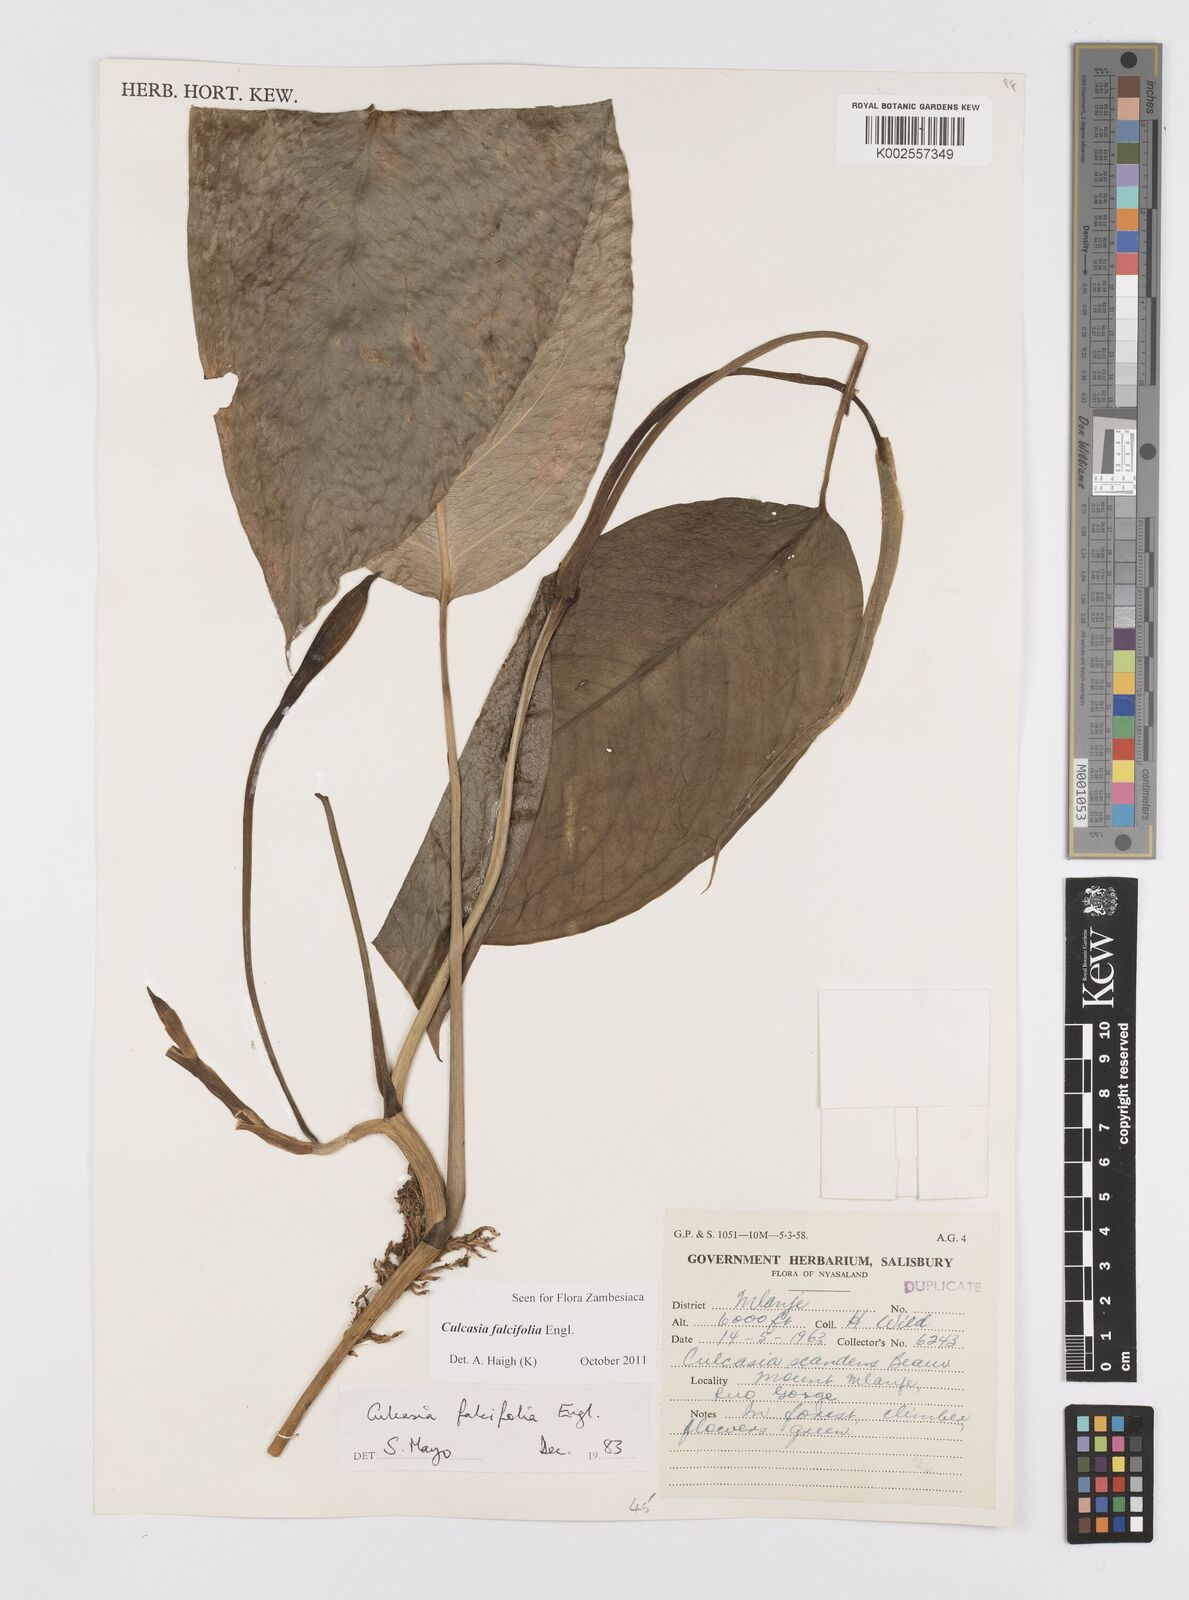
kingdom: Plantae
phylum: Tracheophyta
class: Liliopsida
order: Alismatales
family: Araceae
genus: Culcasia
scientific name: Culcasia falcifolia
